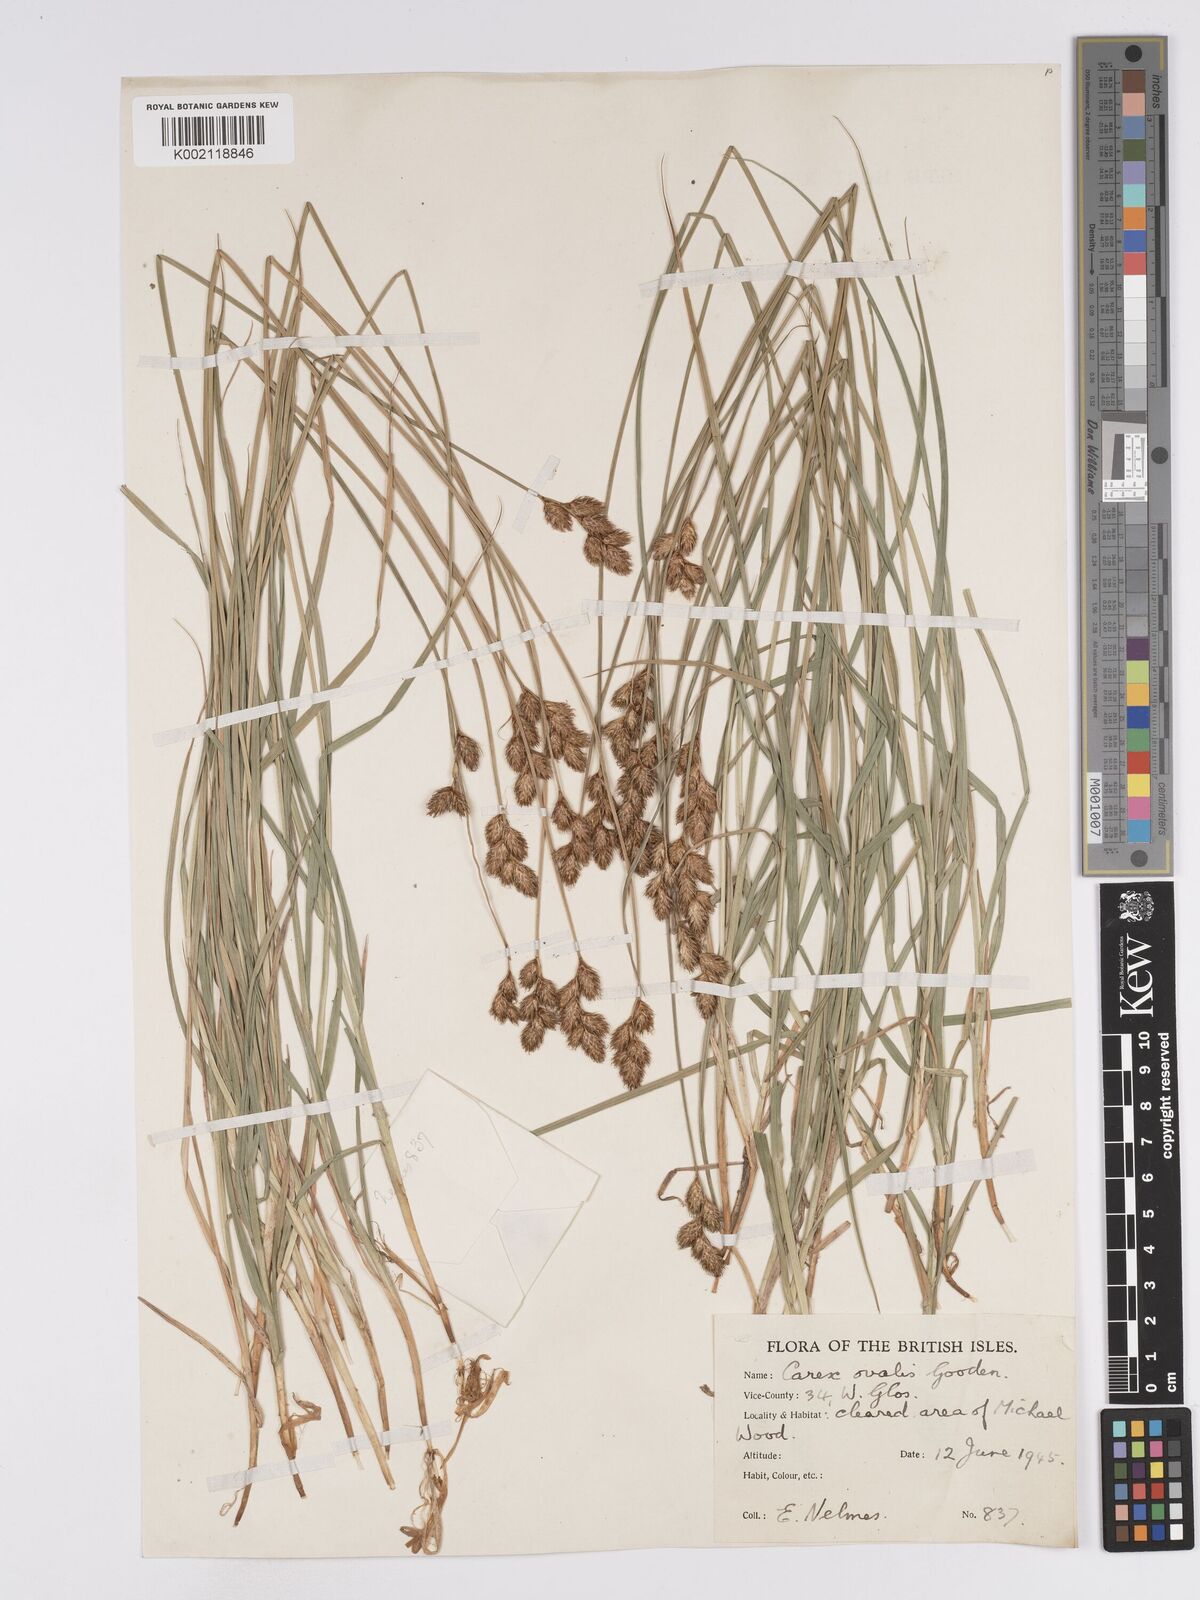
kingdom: Plantae
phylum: Tracheophyta
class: Liliopsida
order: Poales
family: Cyperaceae
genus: Carex
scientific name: Carex leporina
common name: Oval sedge
